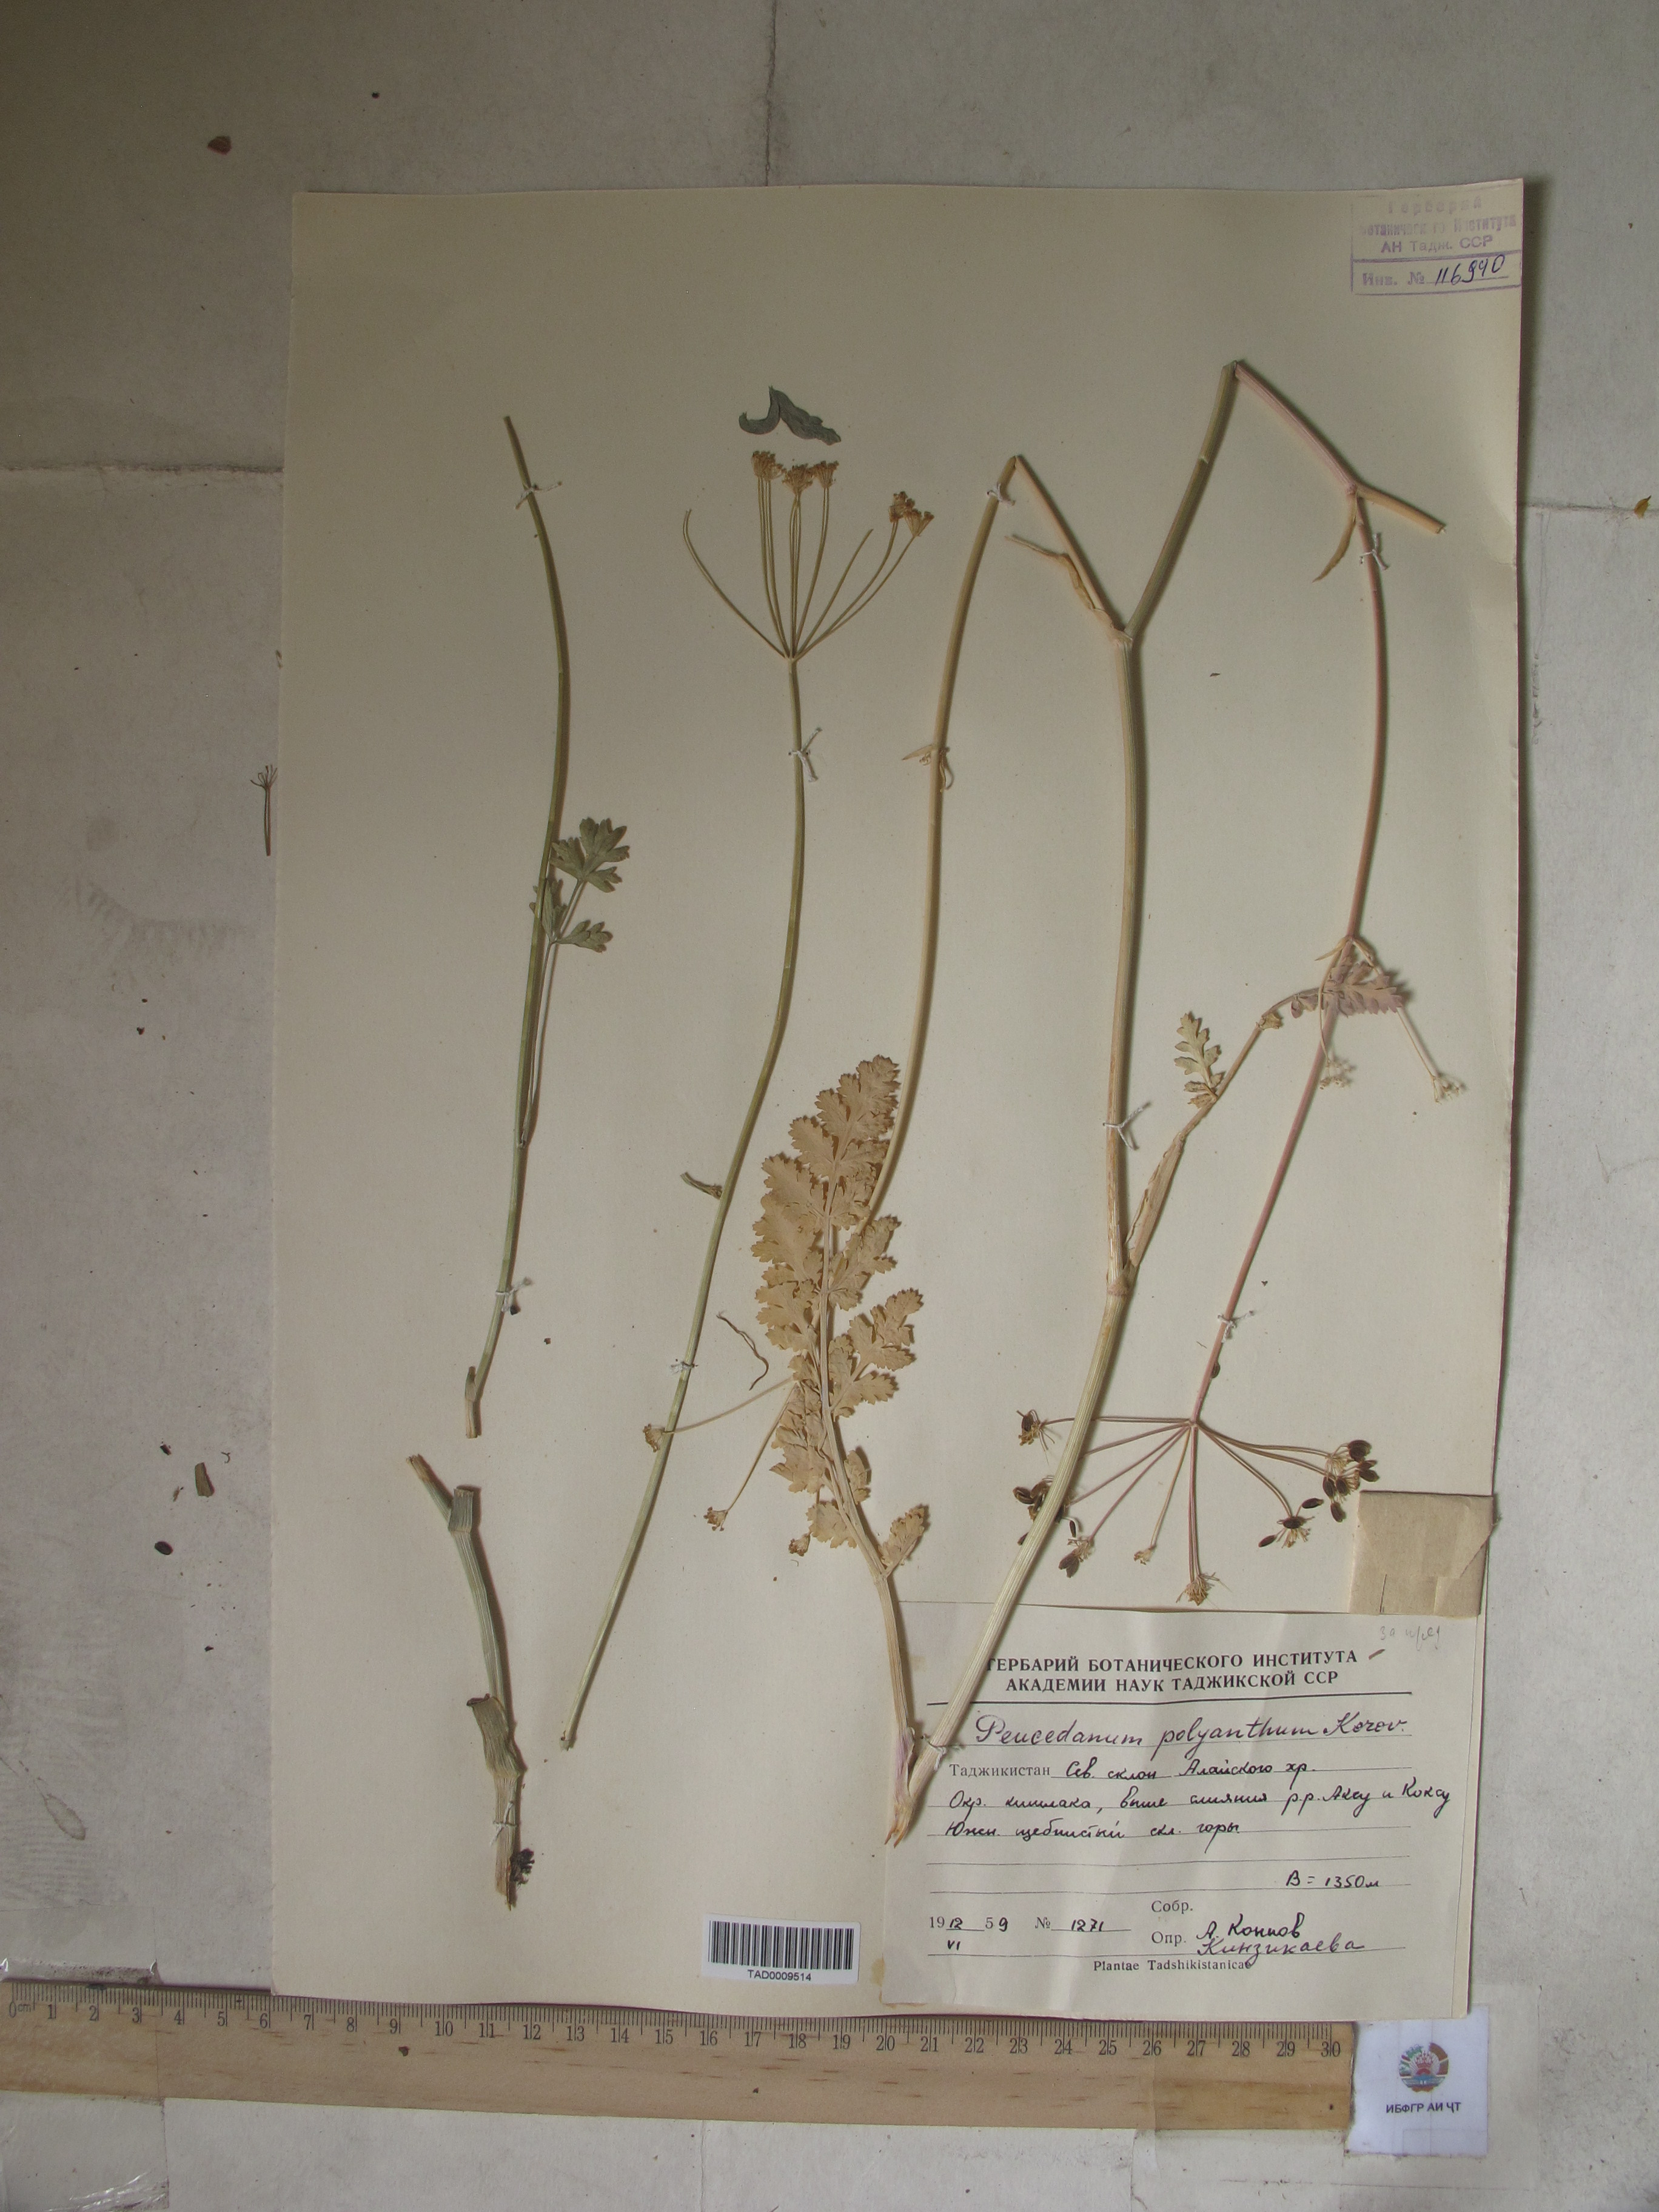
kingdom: Plantae
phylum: Tracheophyta
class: Magnoliopsida
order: Apiales
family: Apiaceae
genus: Fergania
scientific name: Fergania polyantha
